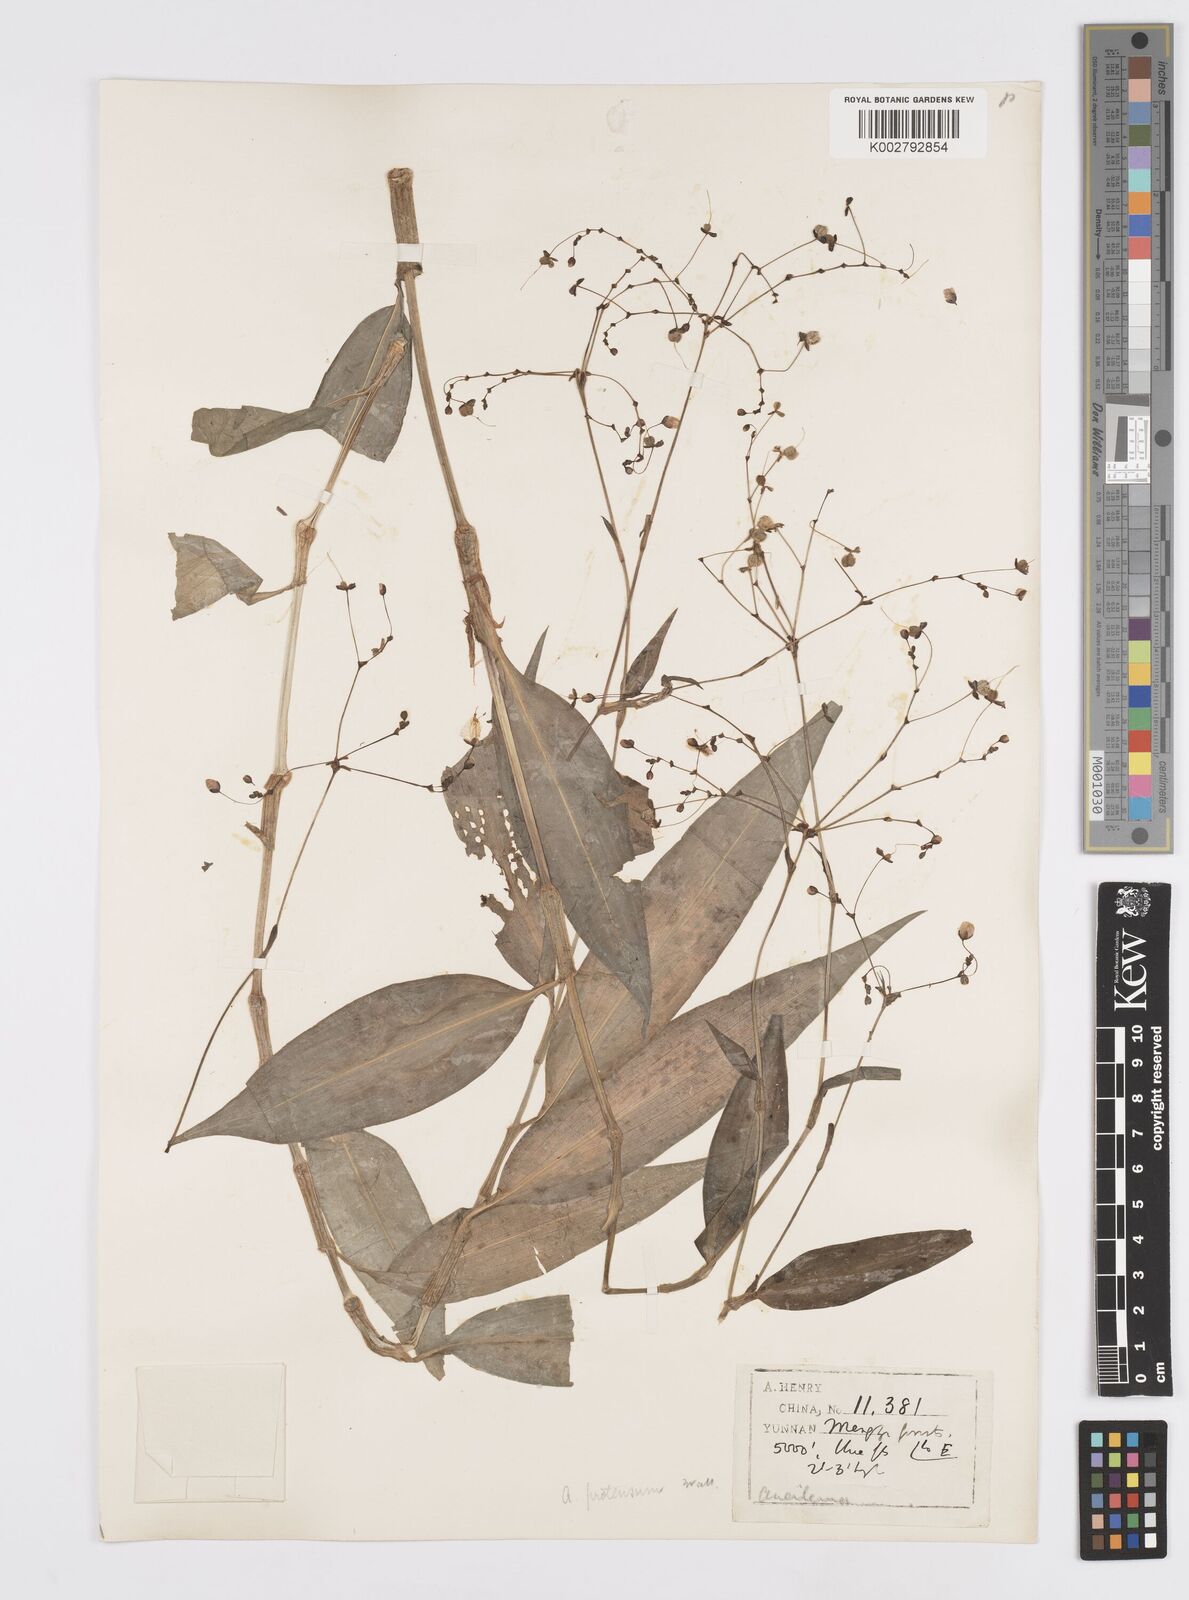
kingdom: Plantae
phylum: Tracheophyta
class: Liliopsida
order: Commelinales
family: Commelinaceae
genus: Murdannia
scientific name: Murdannia
